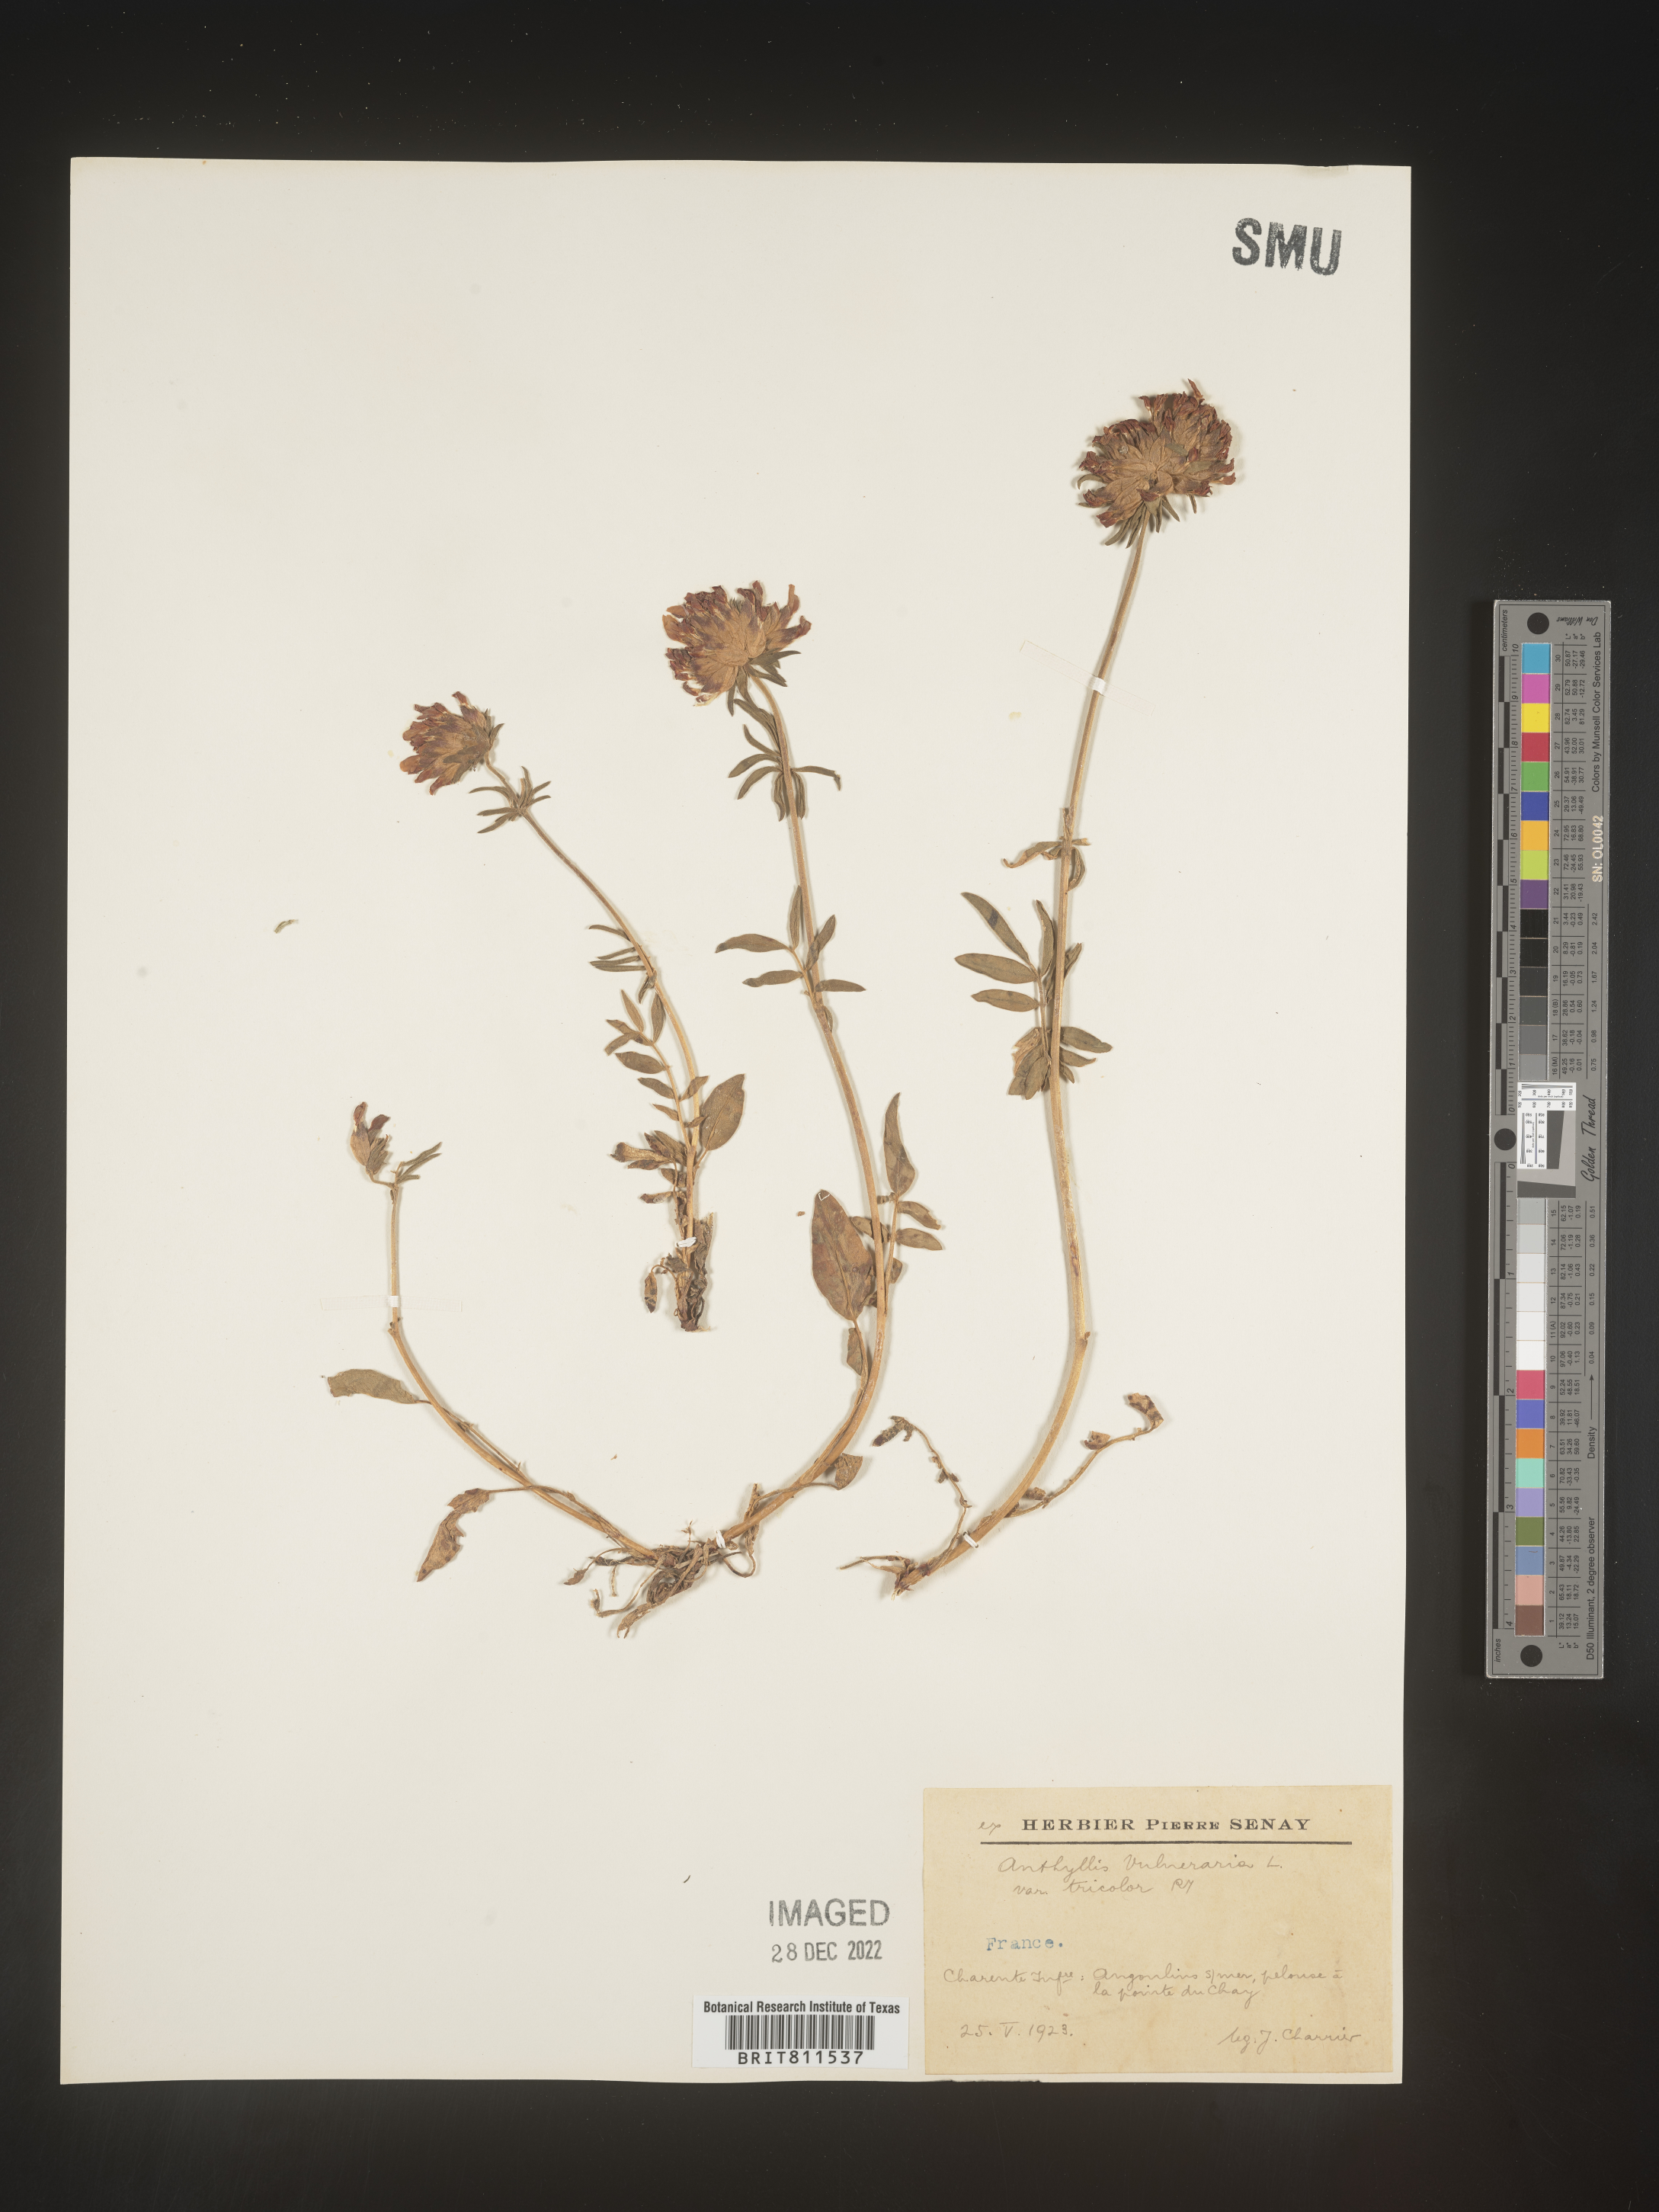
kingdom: Plantae
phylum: Tracheophyta
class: Magnoliopsida
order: Fabales
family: Fabaceae
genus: Anthyllis
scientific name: Anthyllis vulneraria
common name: Kidney vetch
